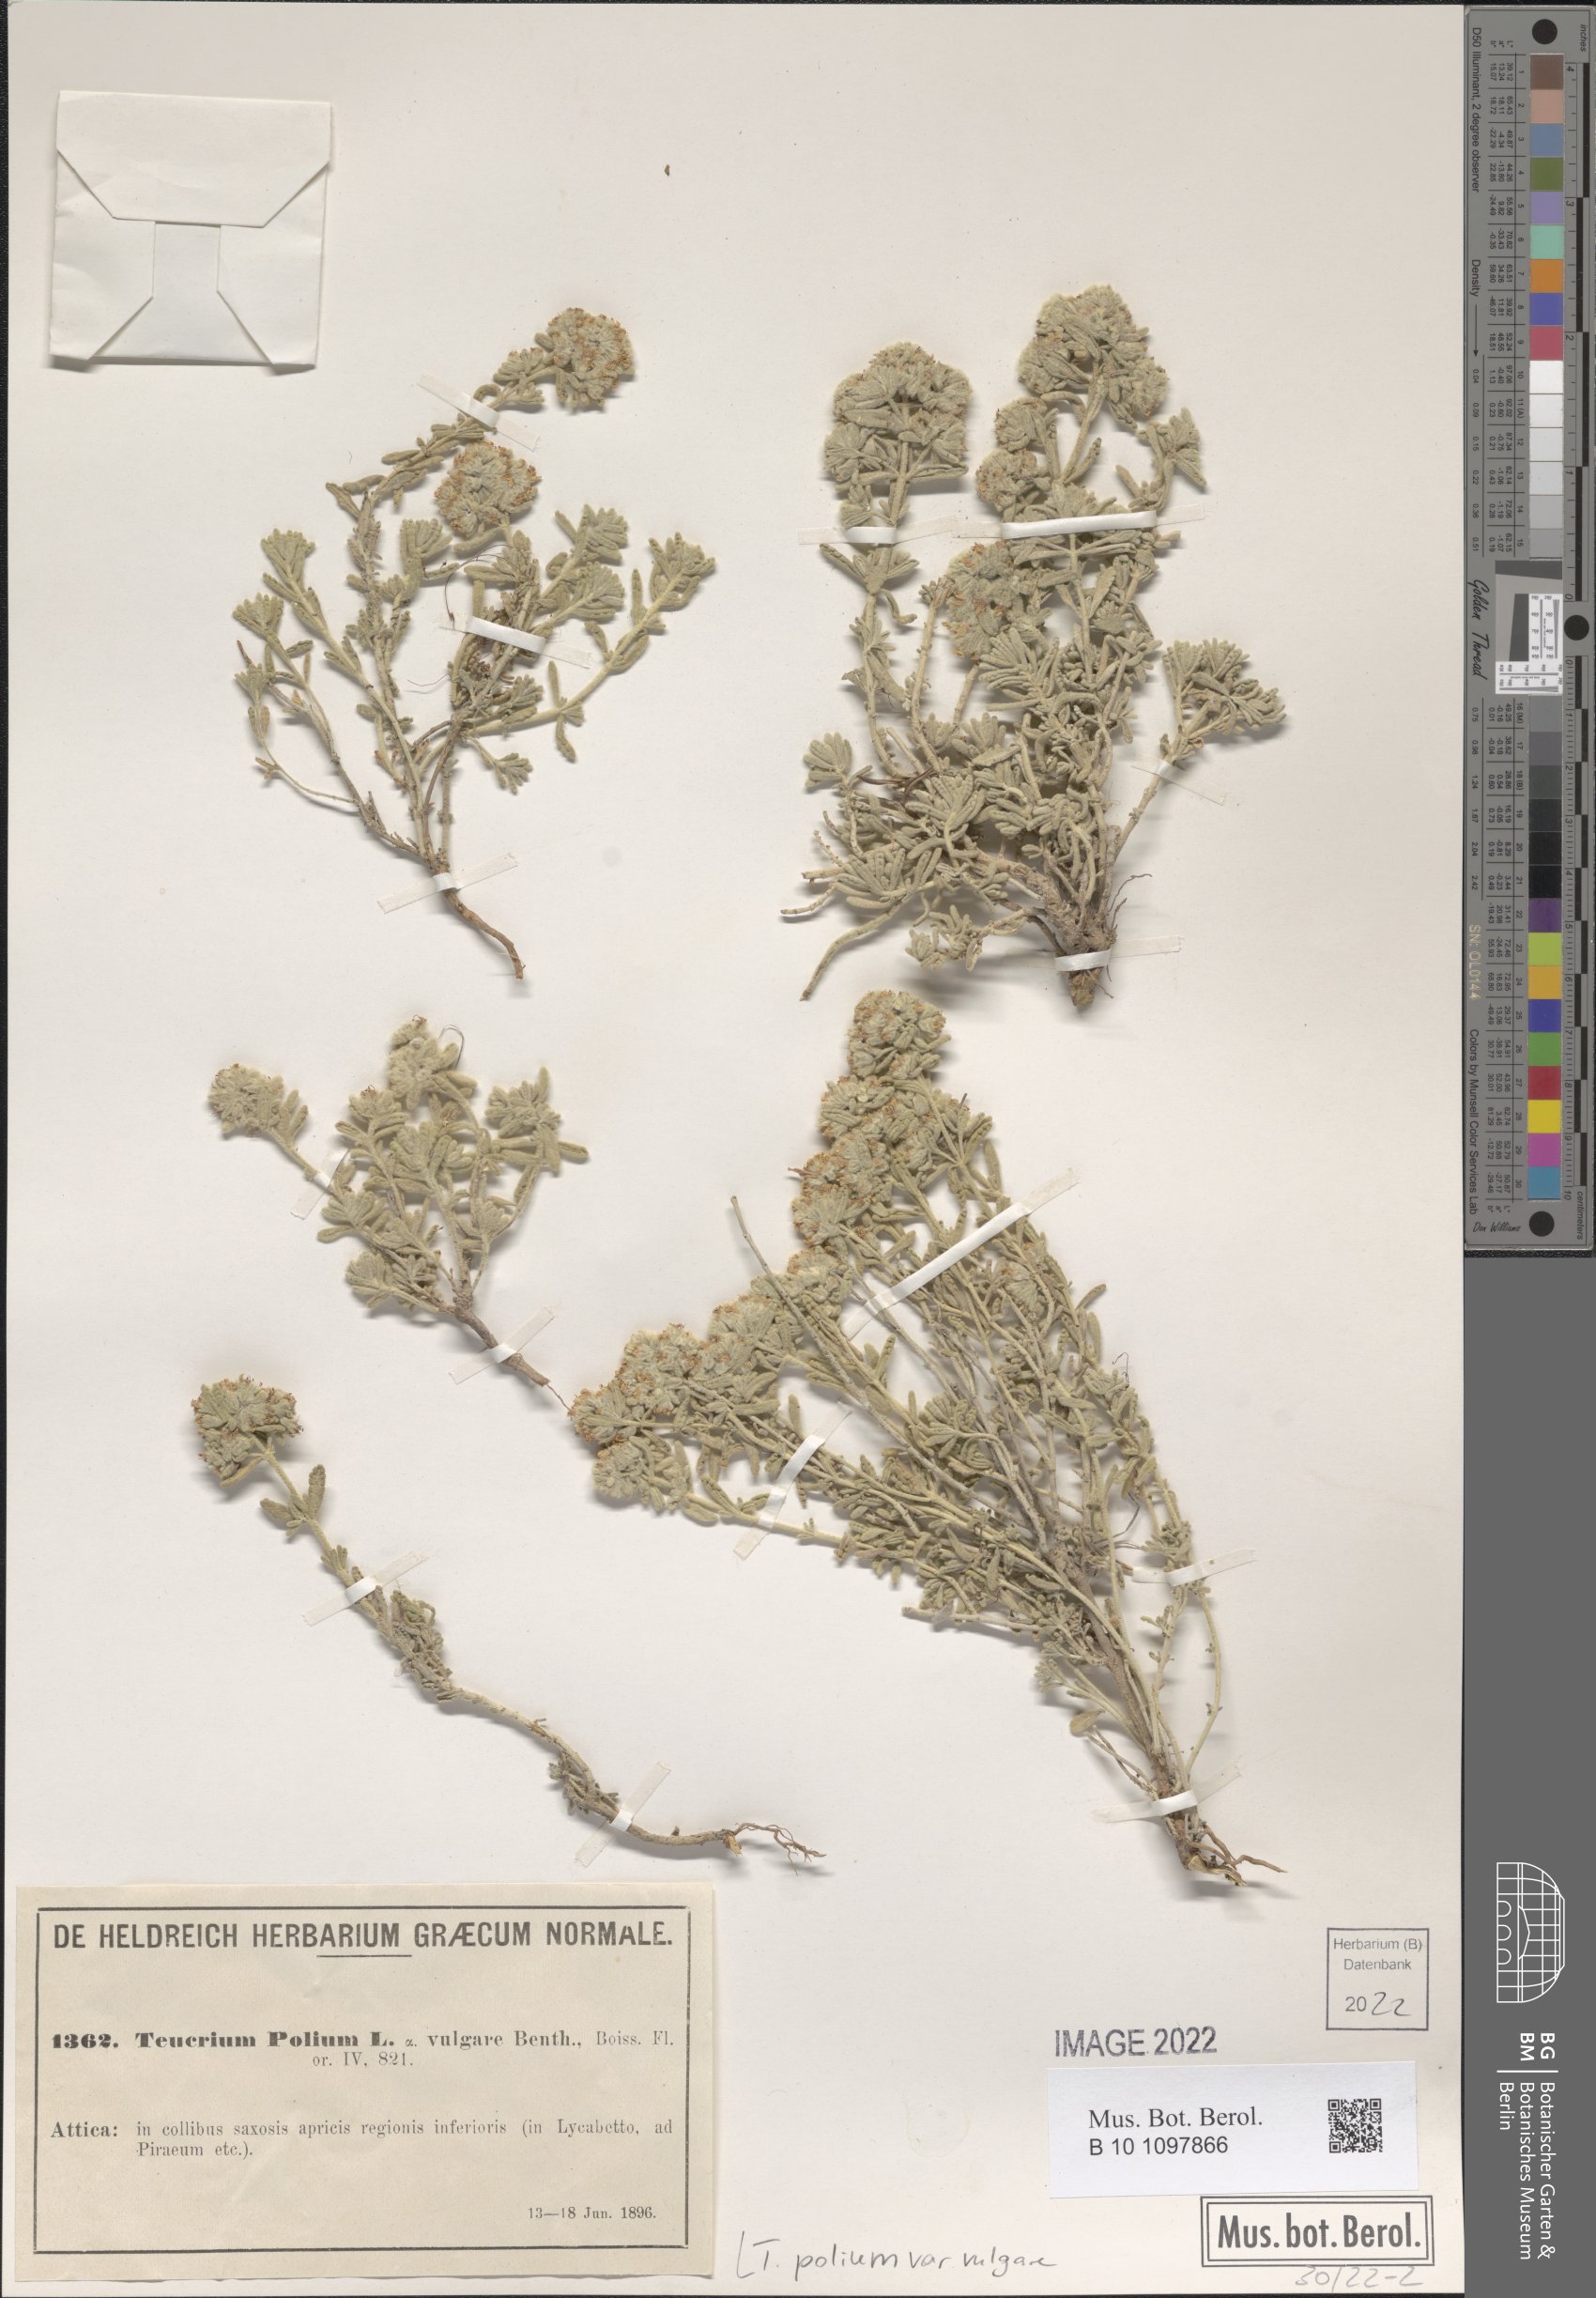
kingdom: Plantae
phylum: Tracheophyta
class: Magnoliopsida
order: Lamiales
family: Lamiaceae
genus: Teucrium
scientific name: Teucrium polium
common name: Poley
